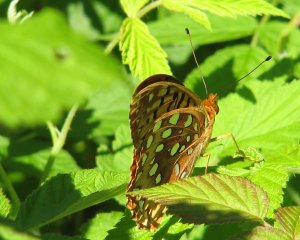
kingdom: Animalia
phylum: Arthropoda
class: Insecta
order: Lepidoptera
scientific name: Lepidoptera
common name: Butterflies
